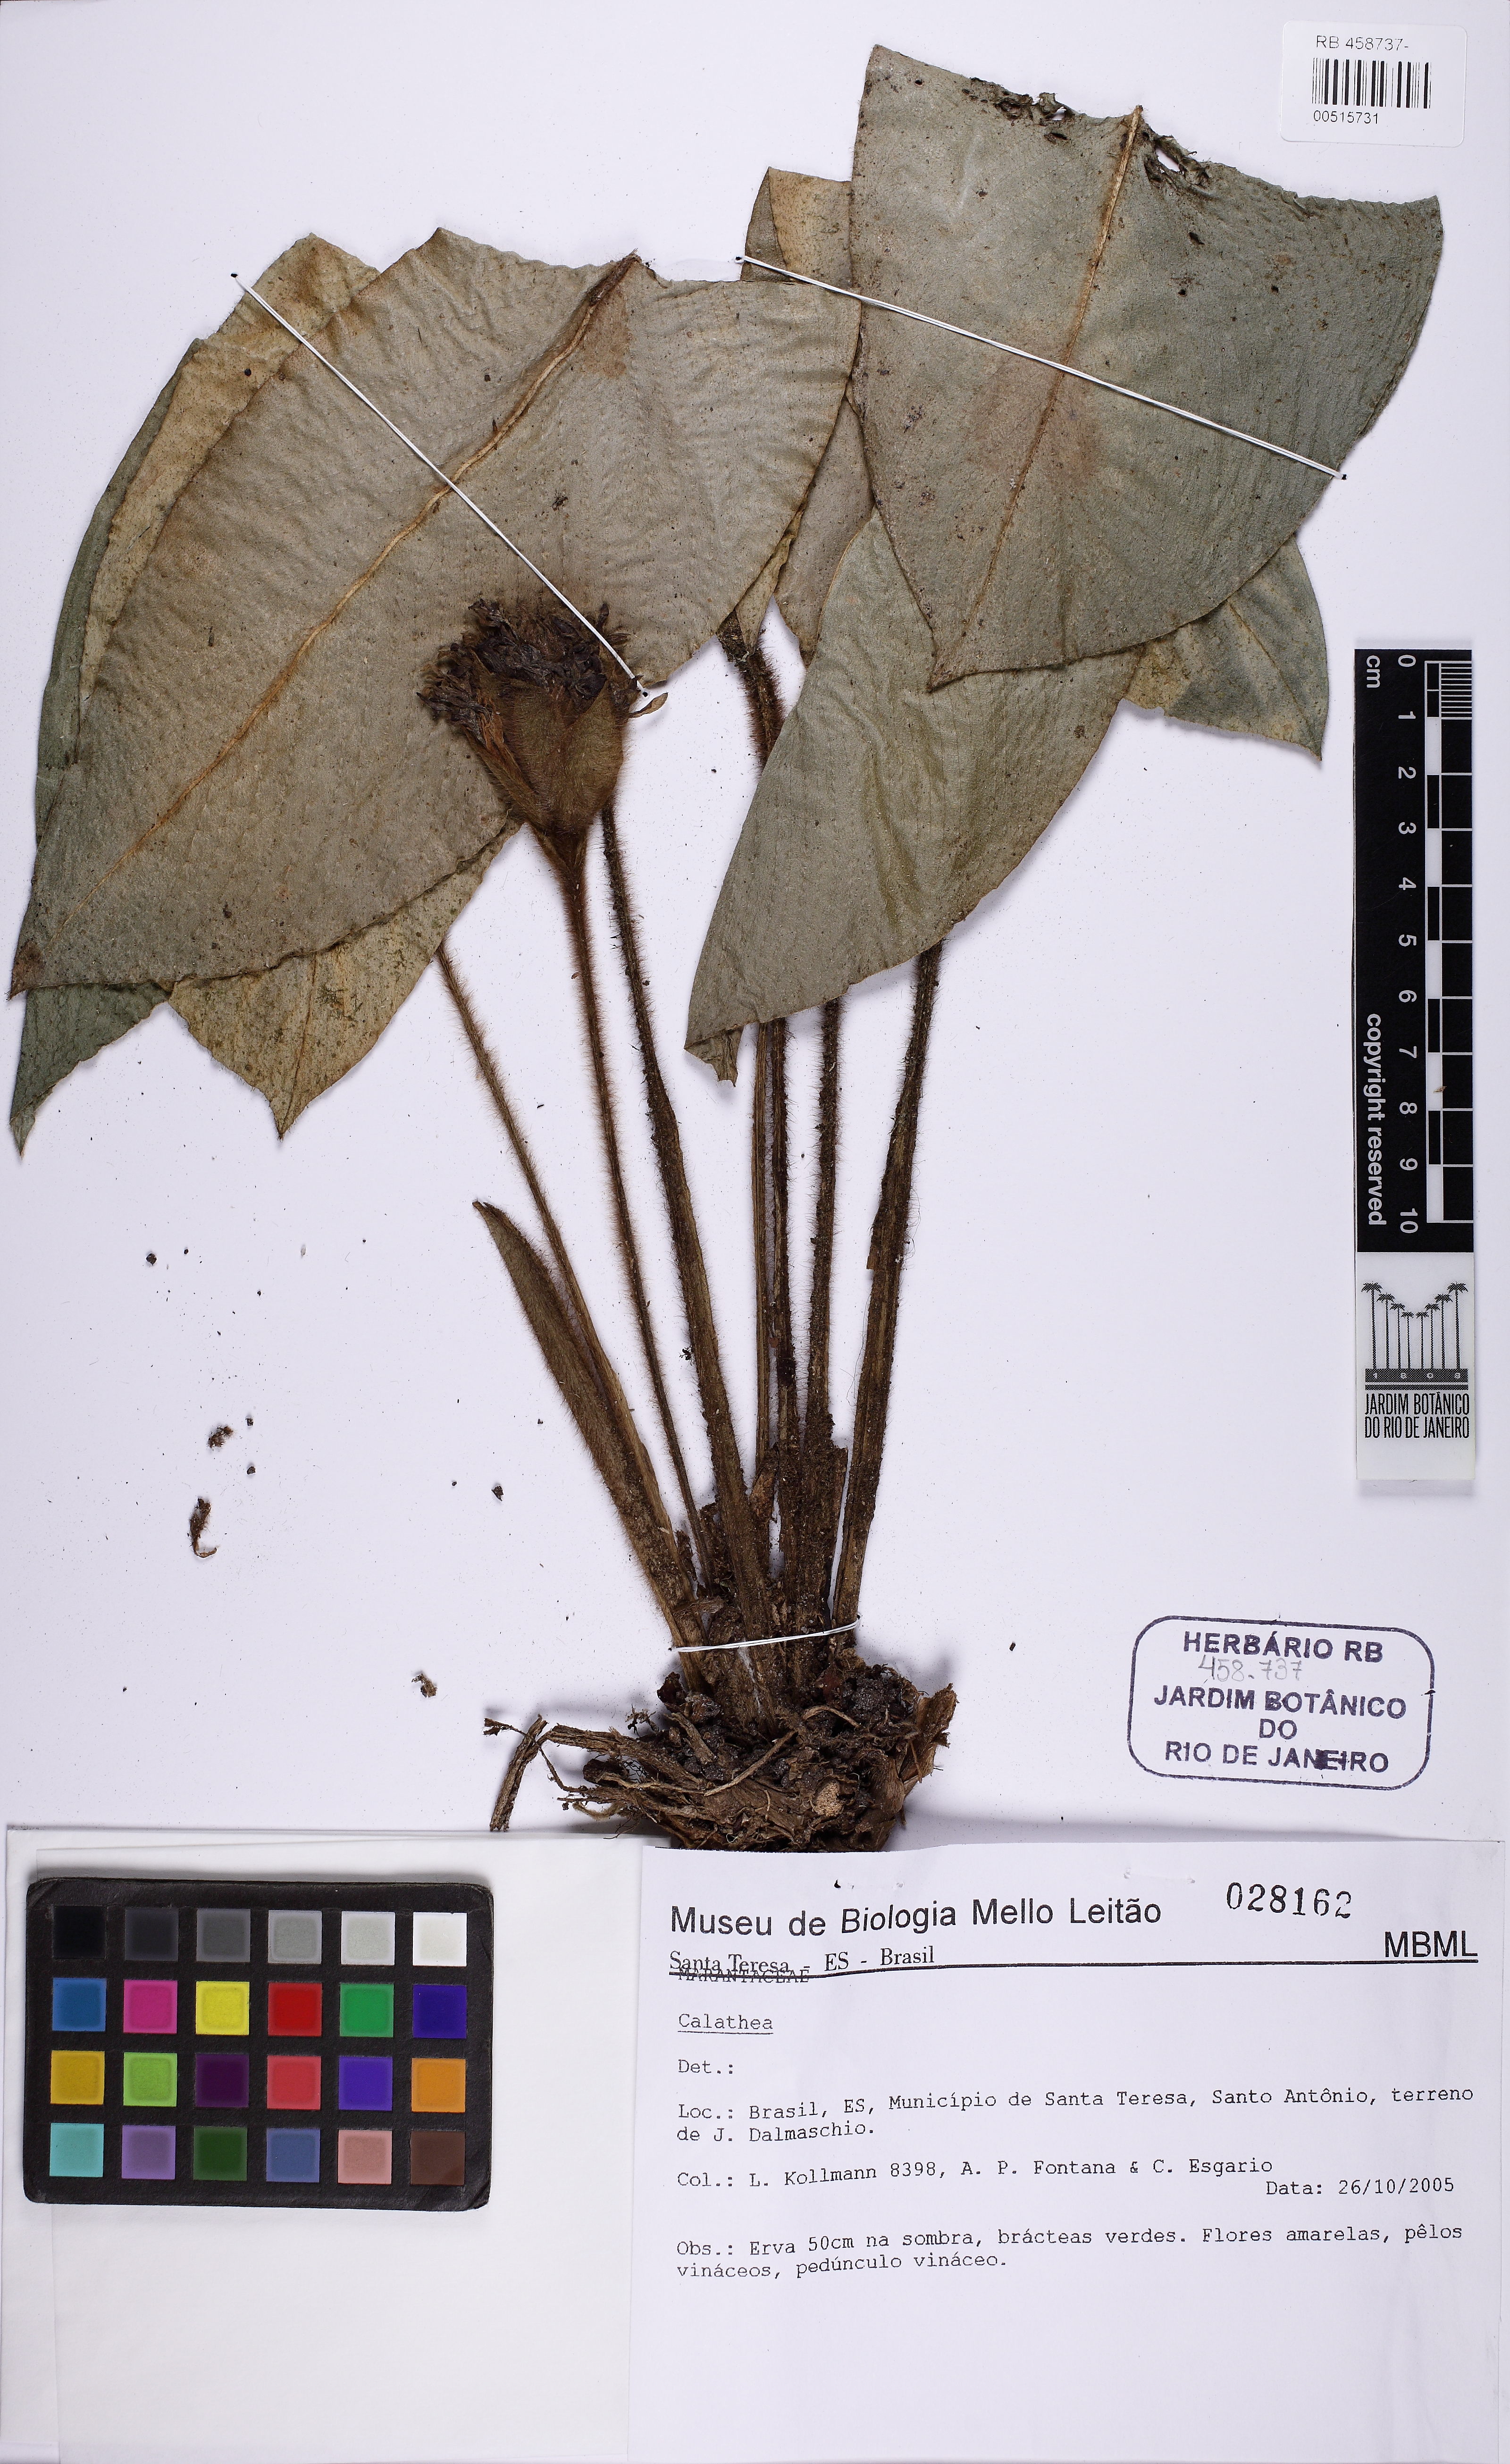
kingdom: Plantae
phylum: Tracheophyta
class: Liliopsida
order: Zingiberales
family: Marantaceae
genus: Goeppertia
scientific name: Goeppertia sciuroides
